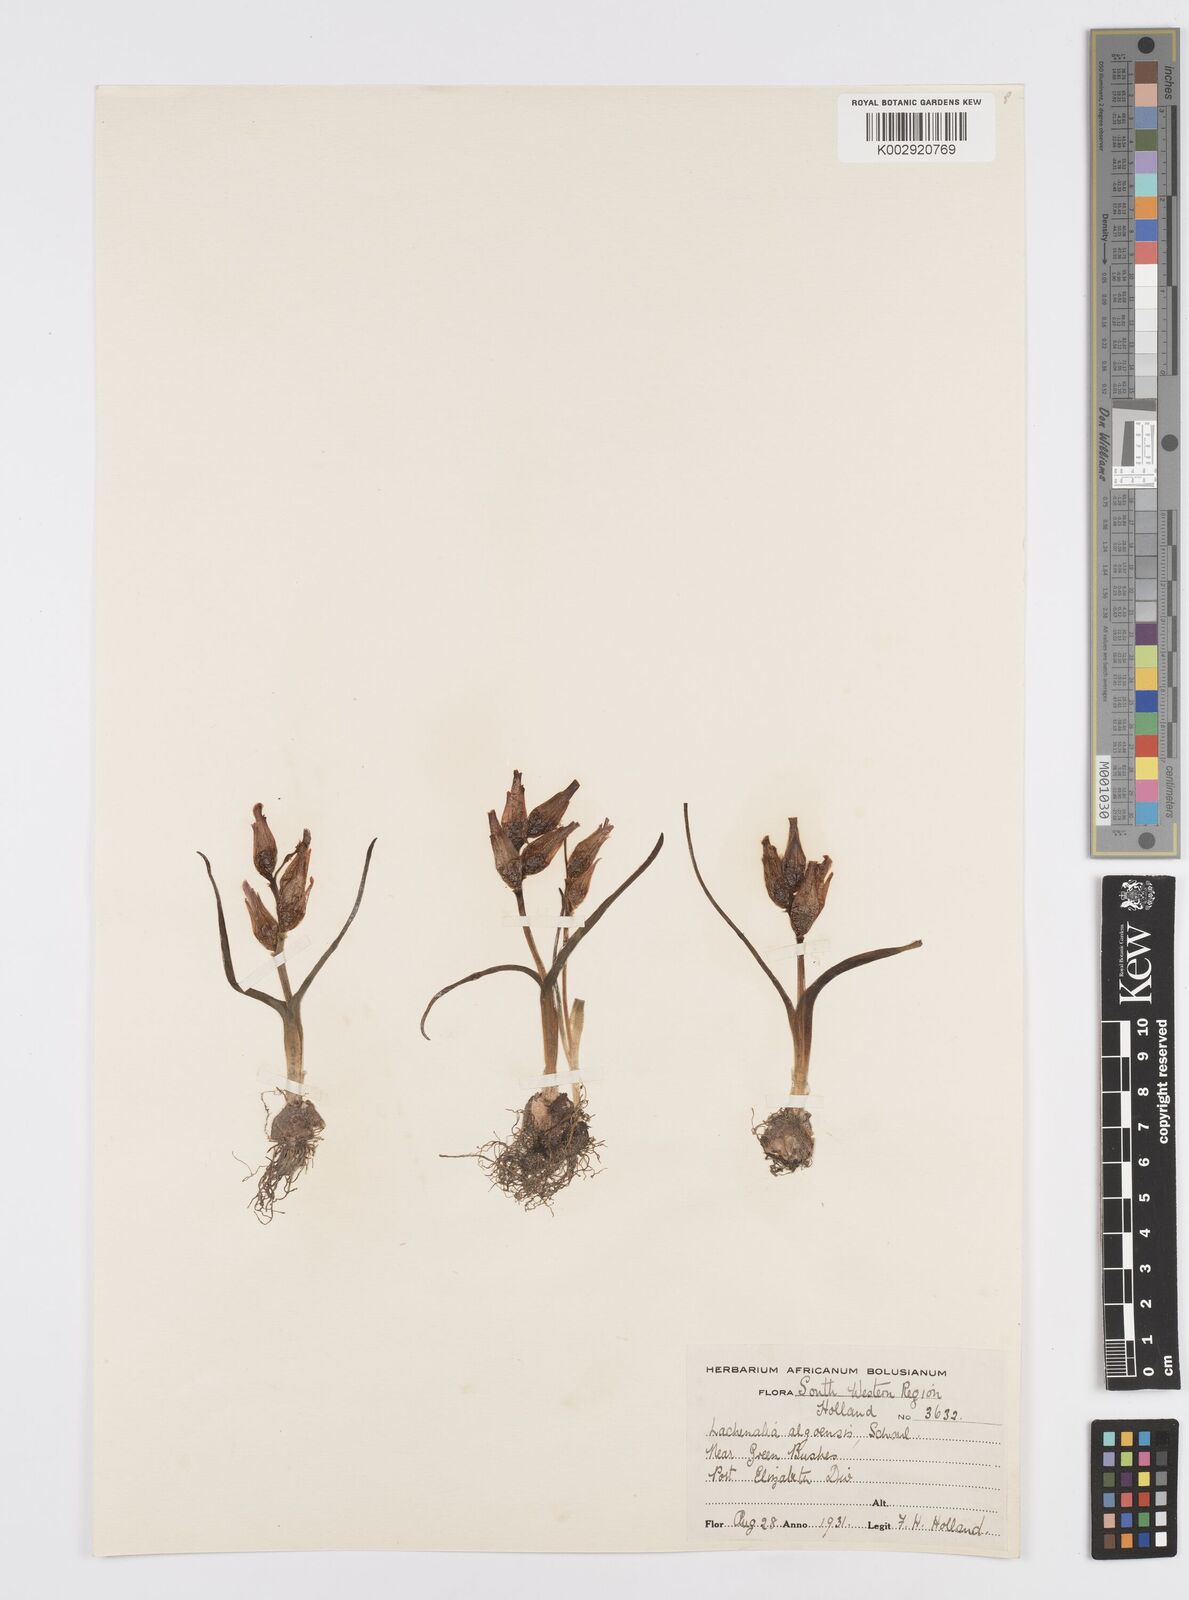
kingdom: Plantae
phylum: Tracheophyta
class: Liliopsida
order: Asparagales
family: Asparagaceae
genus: Lachenalia
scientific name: Lachenalia algoensis
